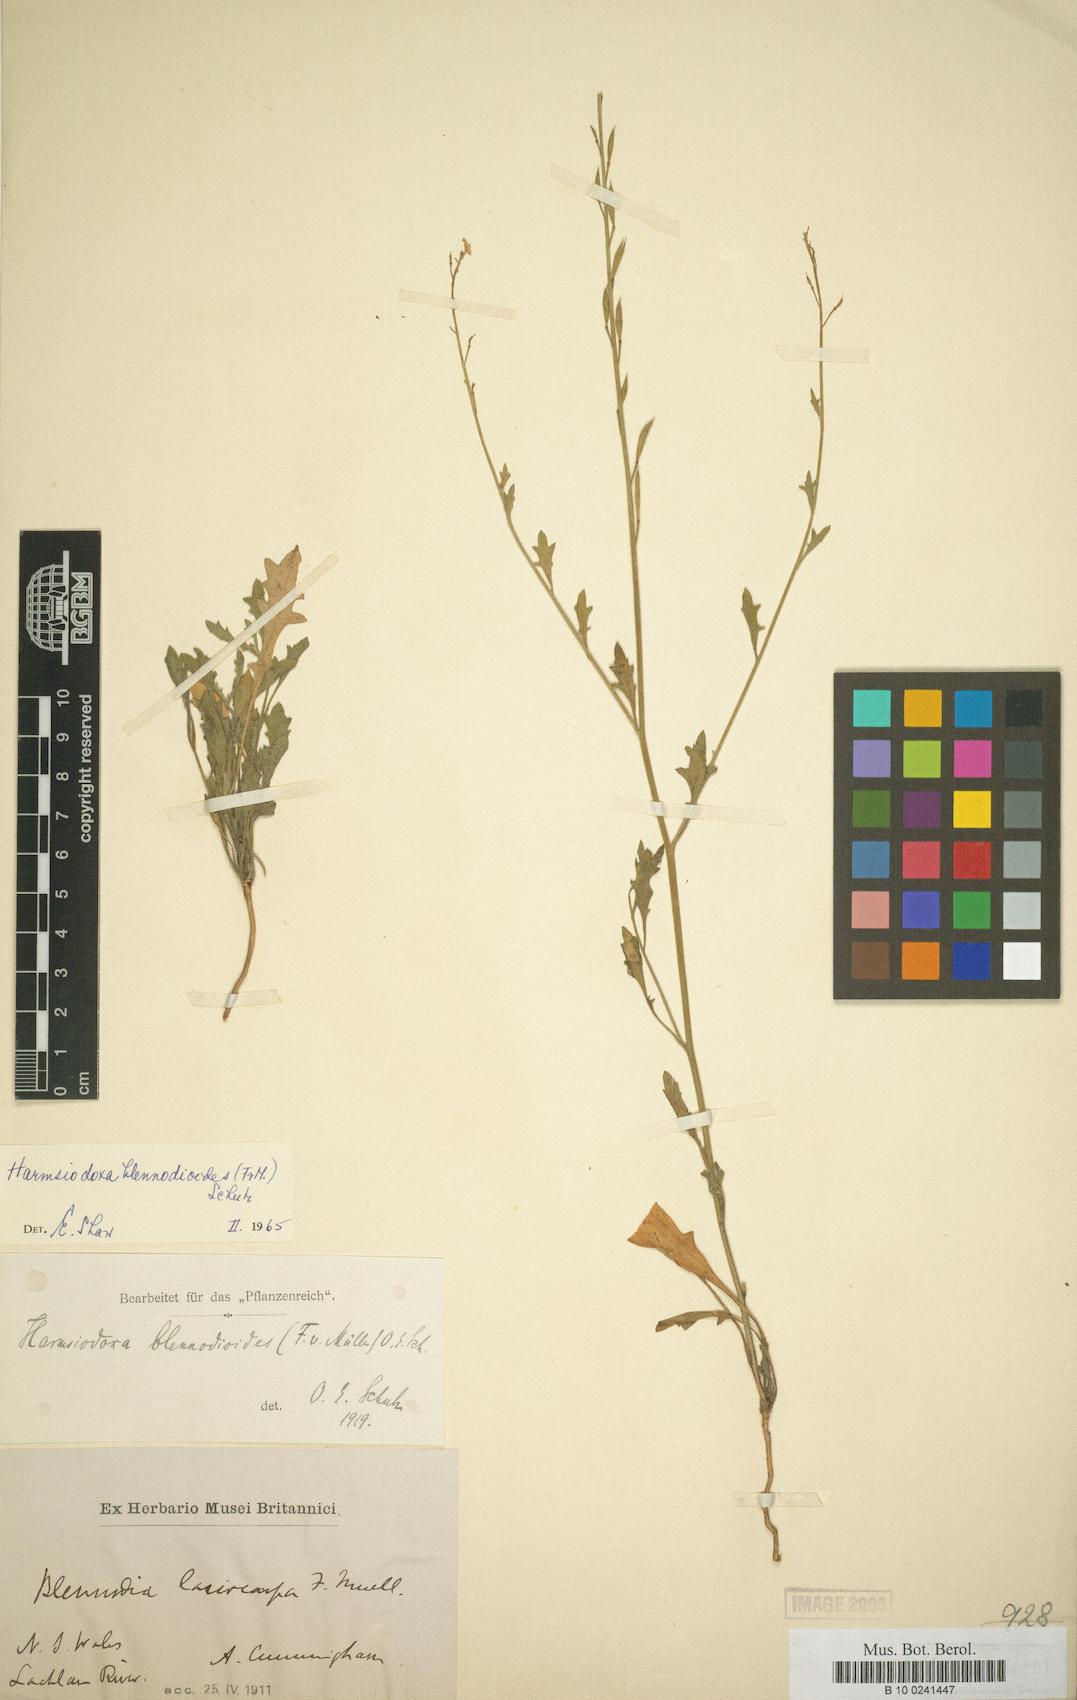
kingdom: Plantae
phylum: Tracheophyta
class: Magnoliopsida
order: Brassicales
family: Brassicaceae
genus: Harmsiodoxa
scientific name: Harmsiodoxa blennodioides
